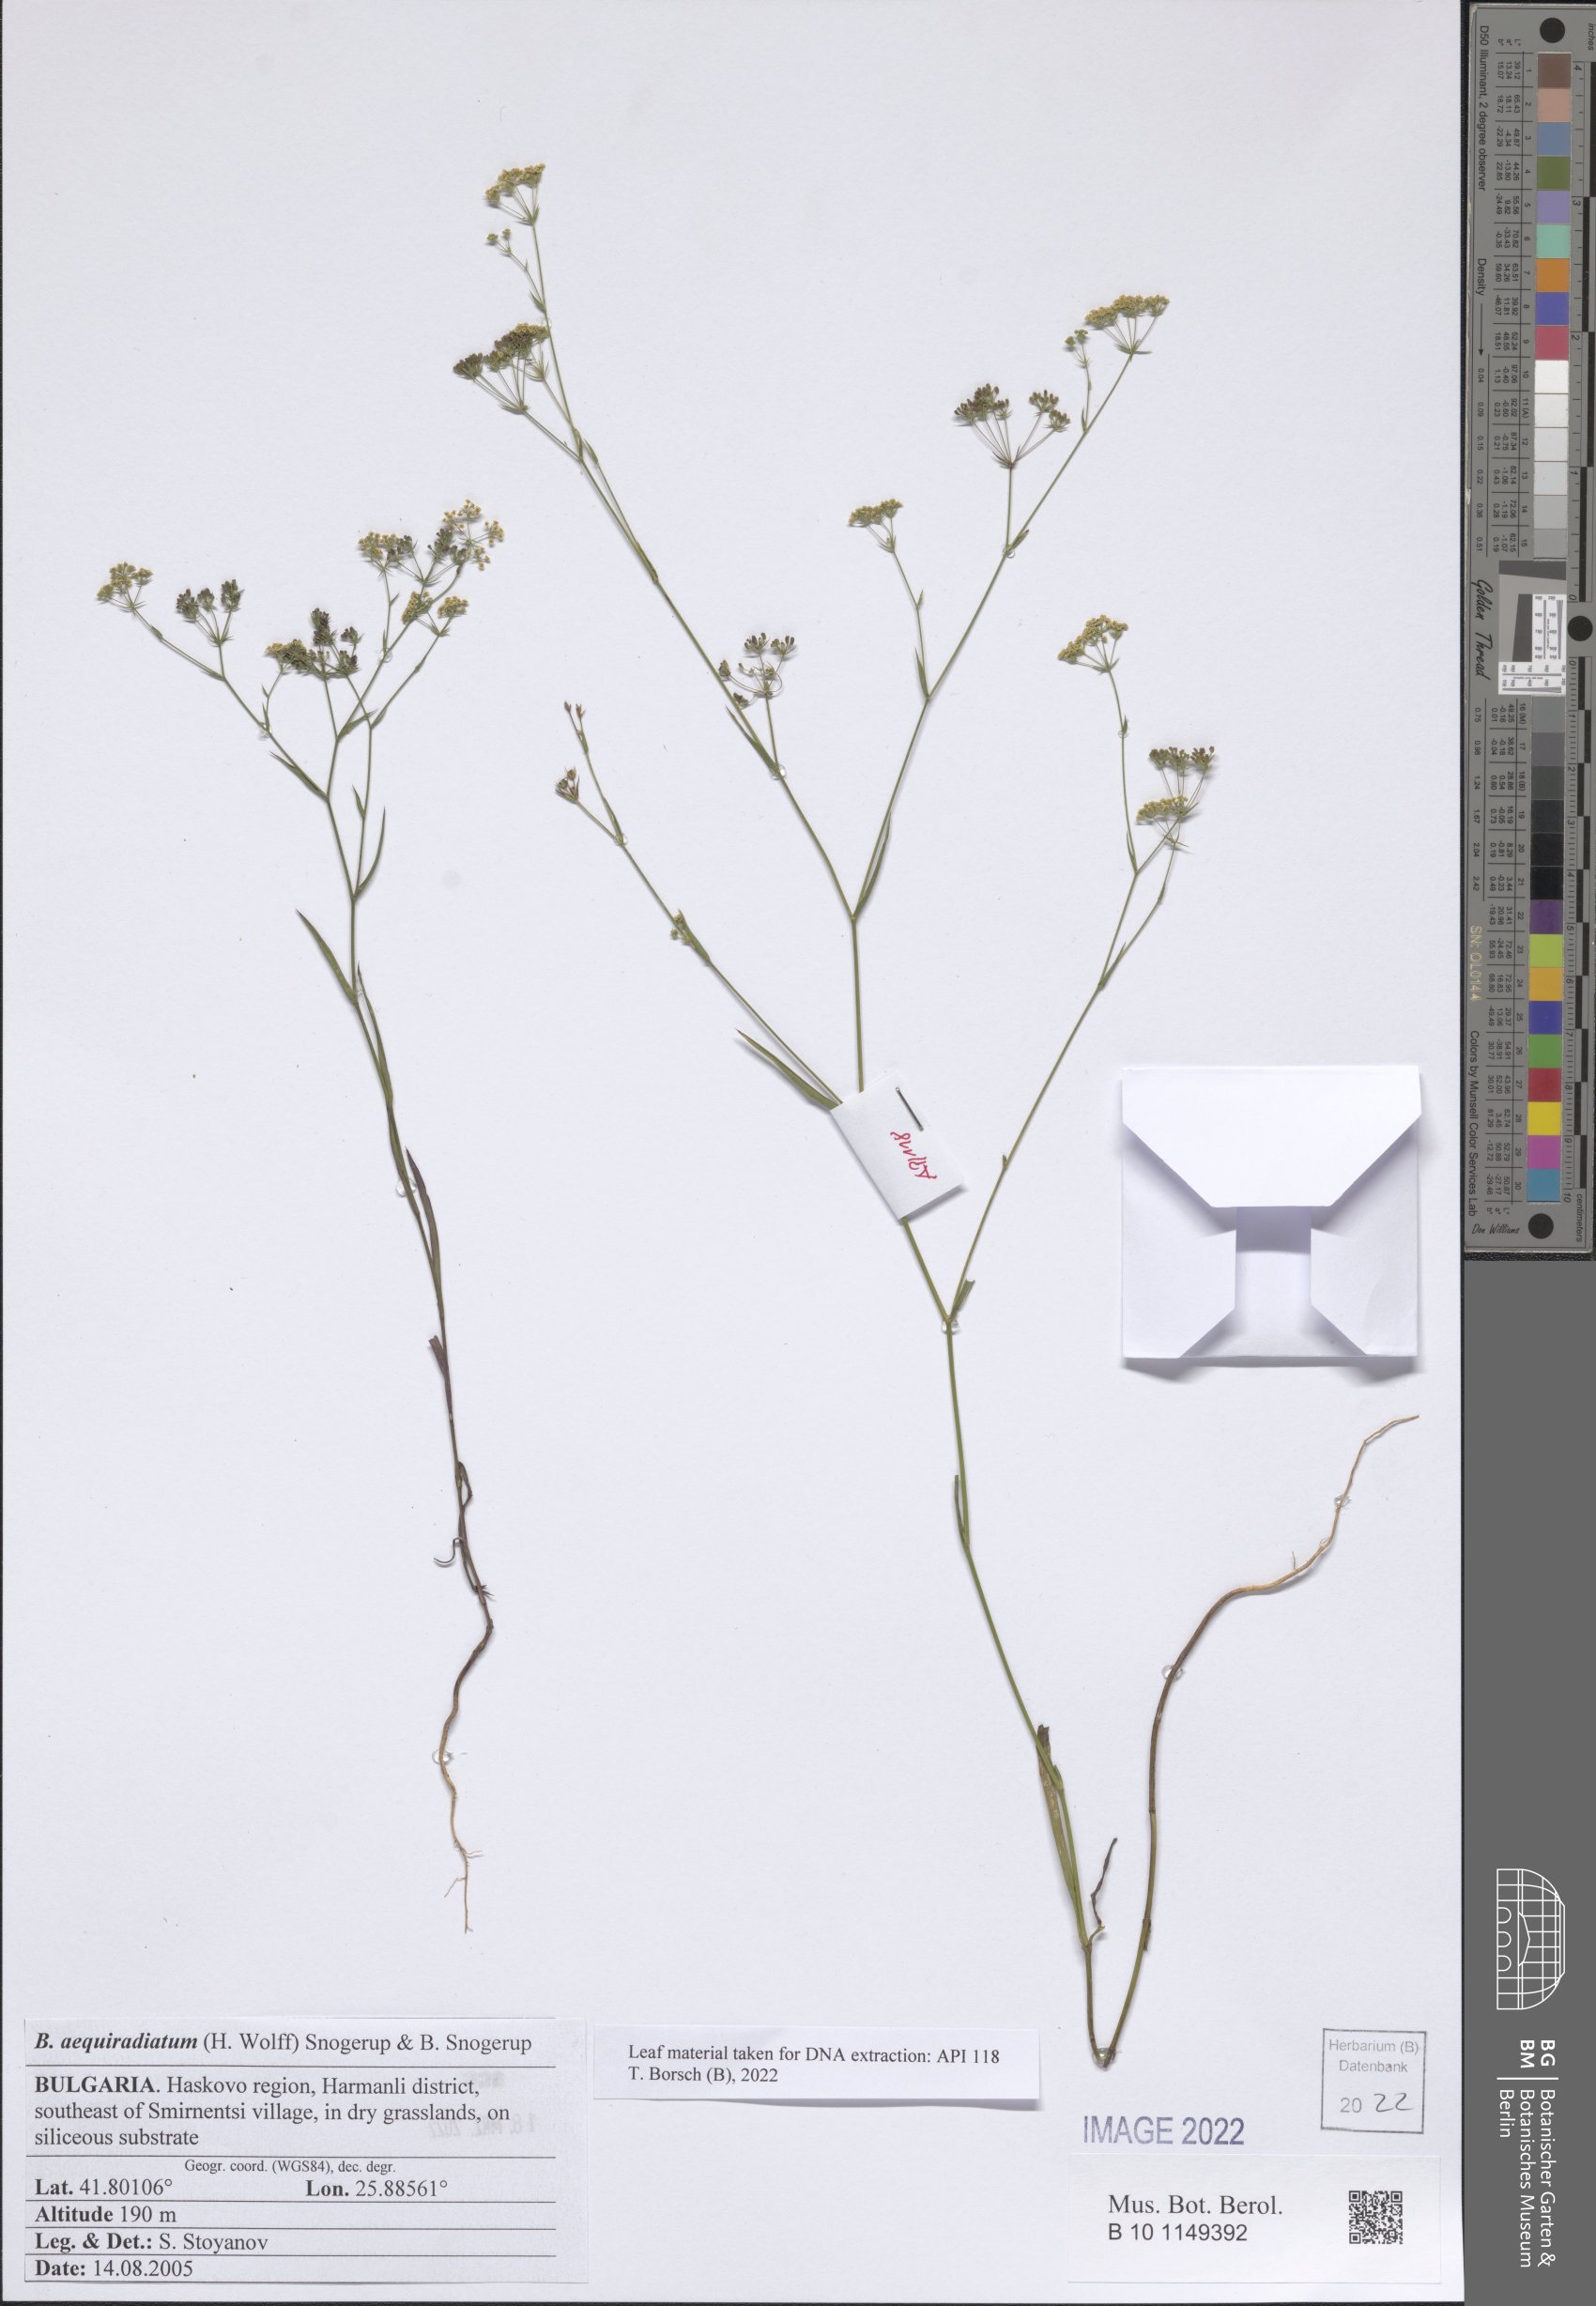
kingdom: Plantae
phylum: Tracheophyta
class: Magnoliopsida
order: Apiales
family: Apiaceae
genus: Bupleurum
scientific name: Bupleurum aequiradiatum
